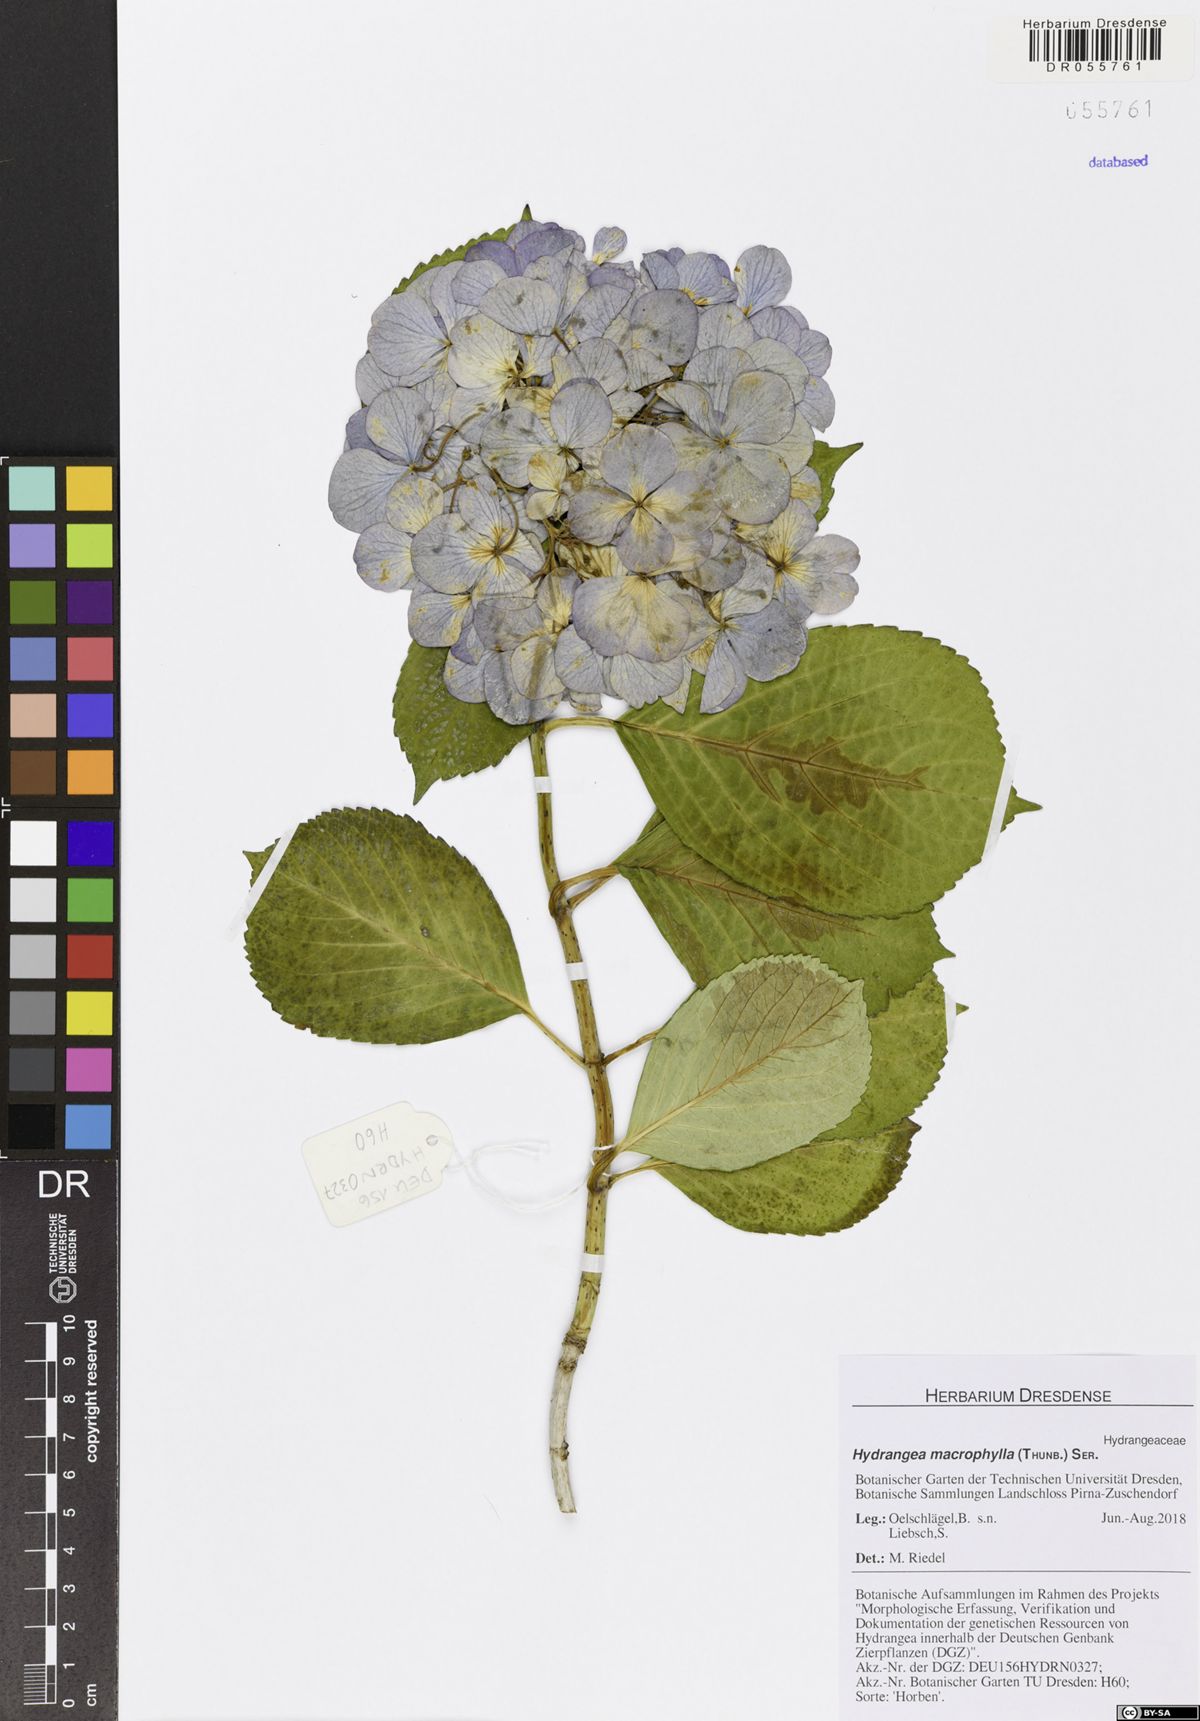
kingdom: Plantae
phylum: Tracheophyta
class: Magnoliopsida
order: Cornales
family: Hydrangeaceae
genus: Hydrangea
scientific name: Hydrangea macrophylla
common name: Hydrangea
